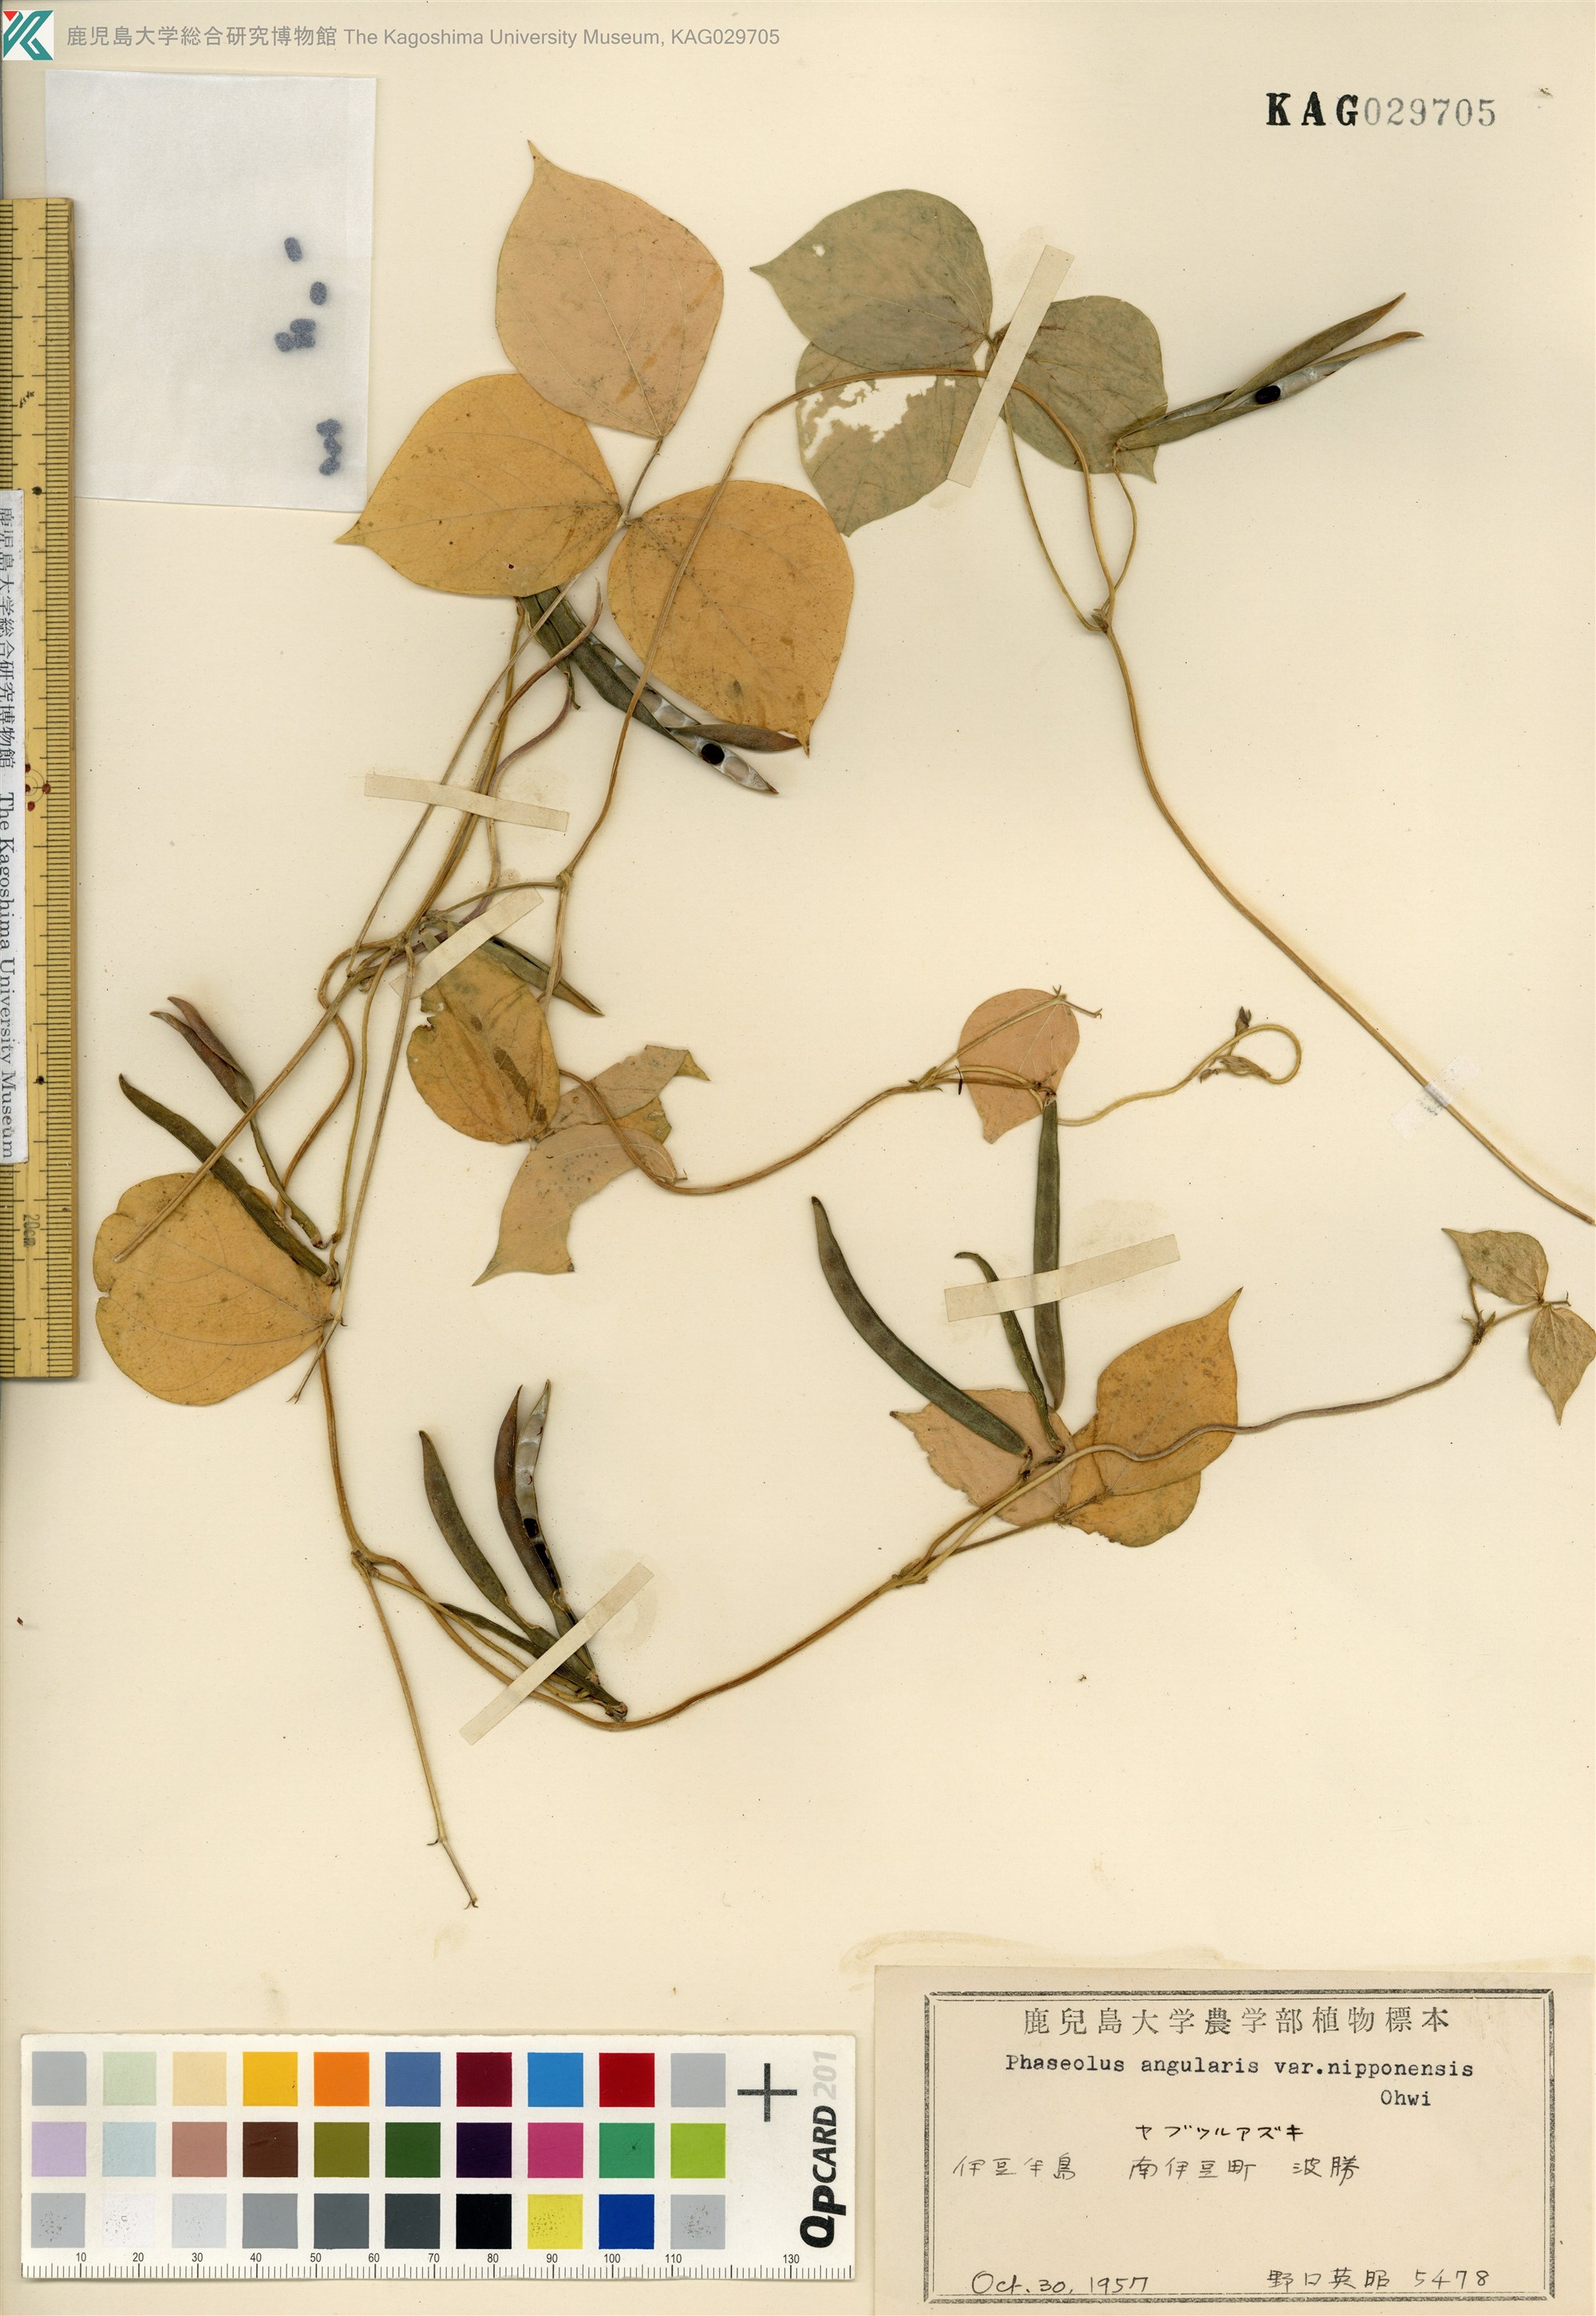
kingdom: Plantae
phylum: Tracheophyta
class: Magnoliopsida
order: Fabales
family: Fabaceae
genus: Vigna
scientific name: Vigna angularis
